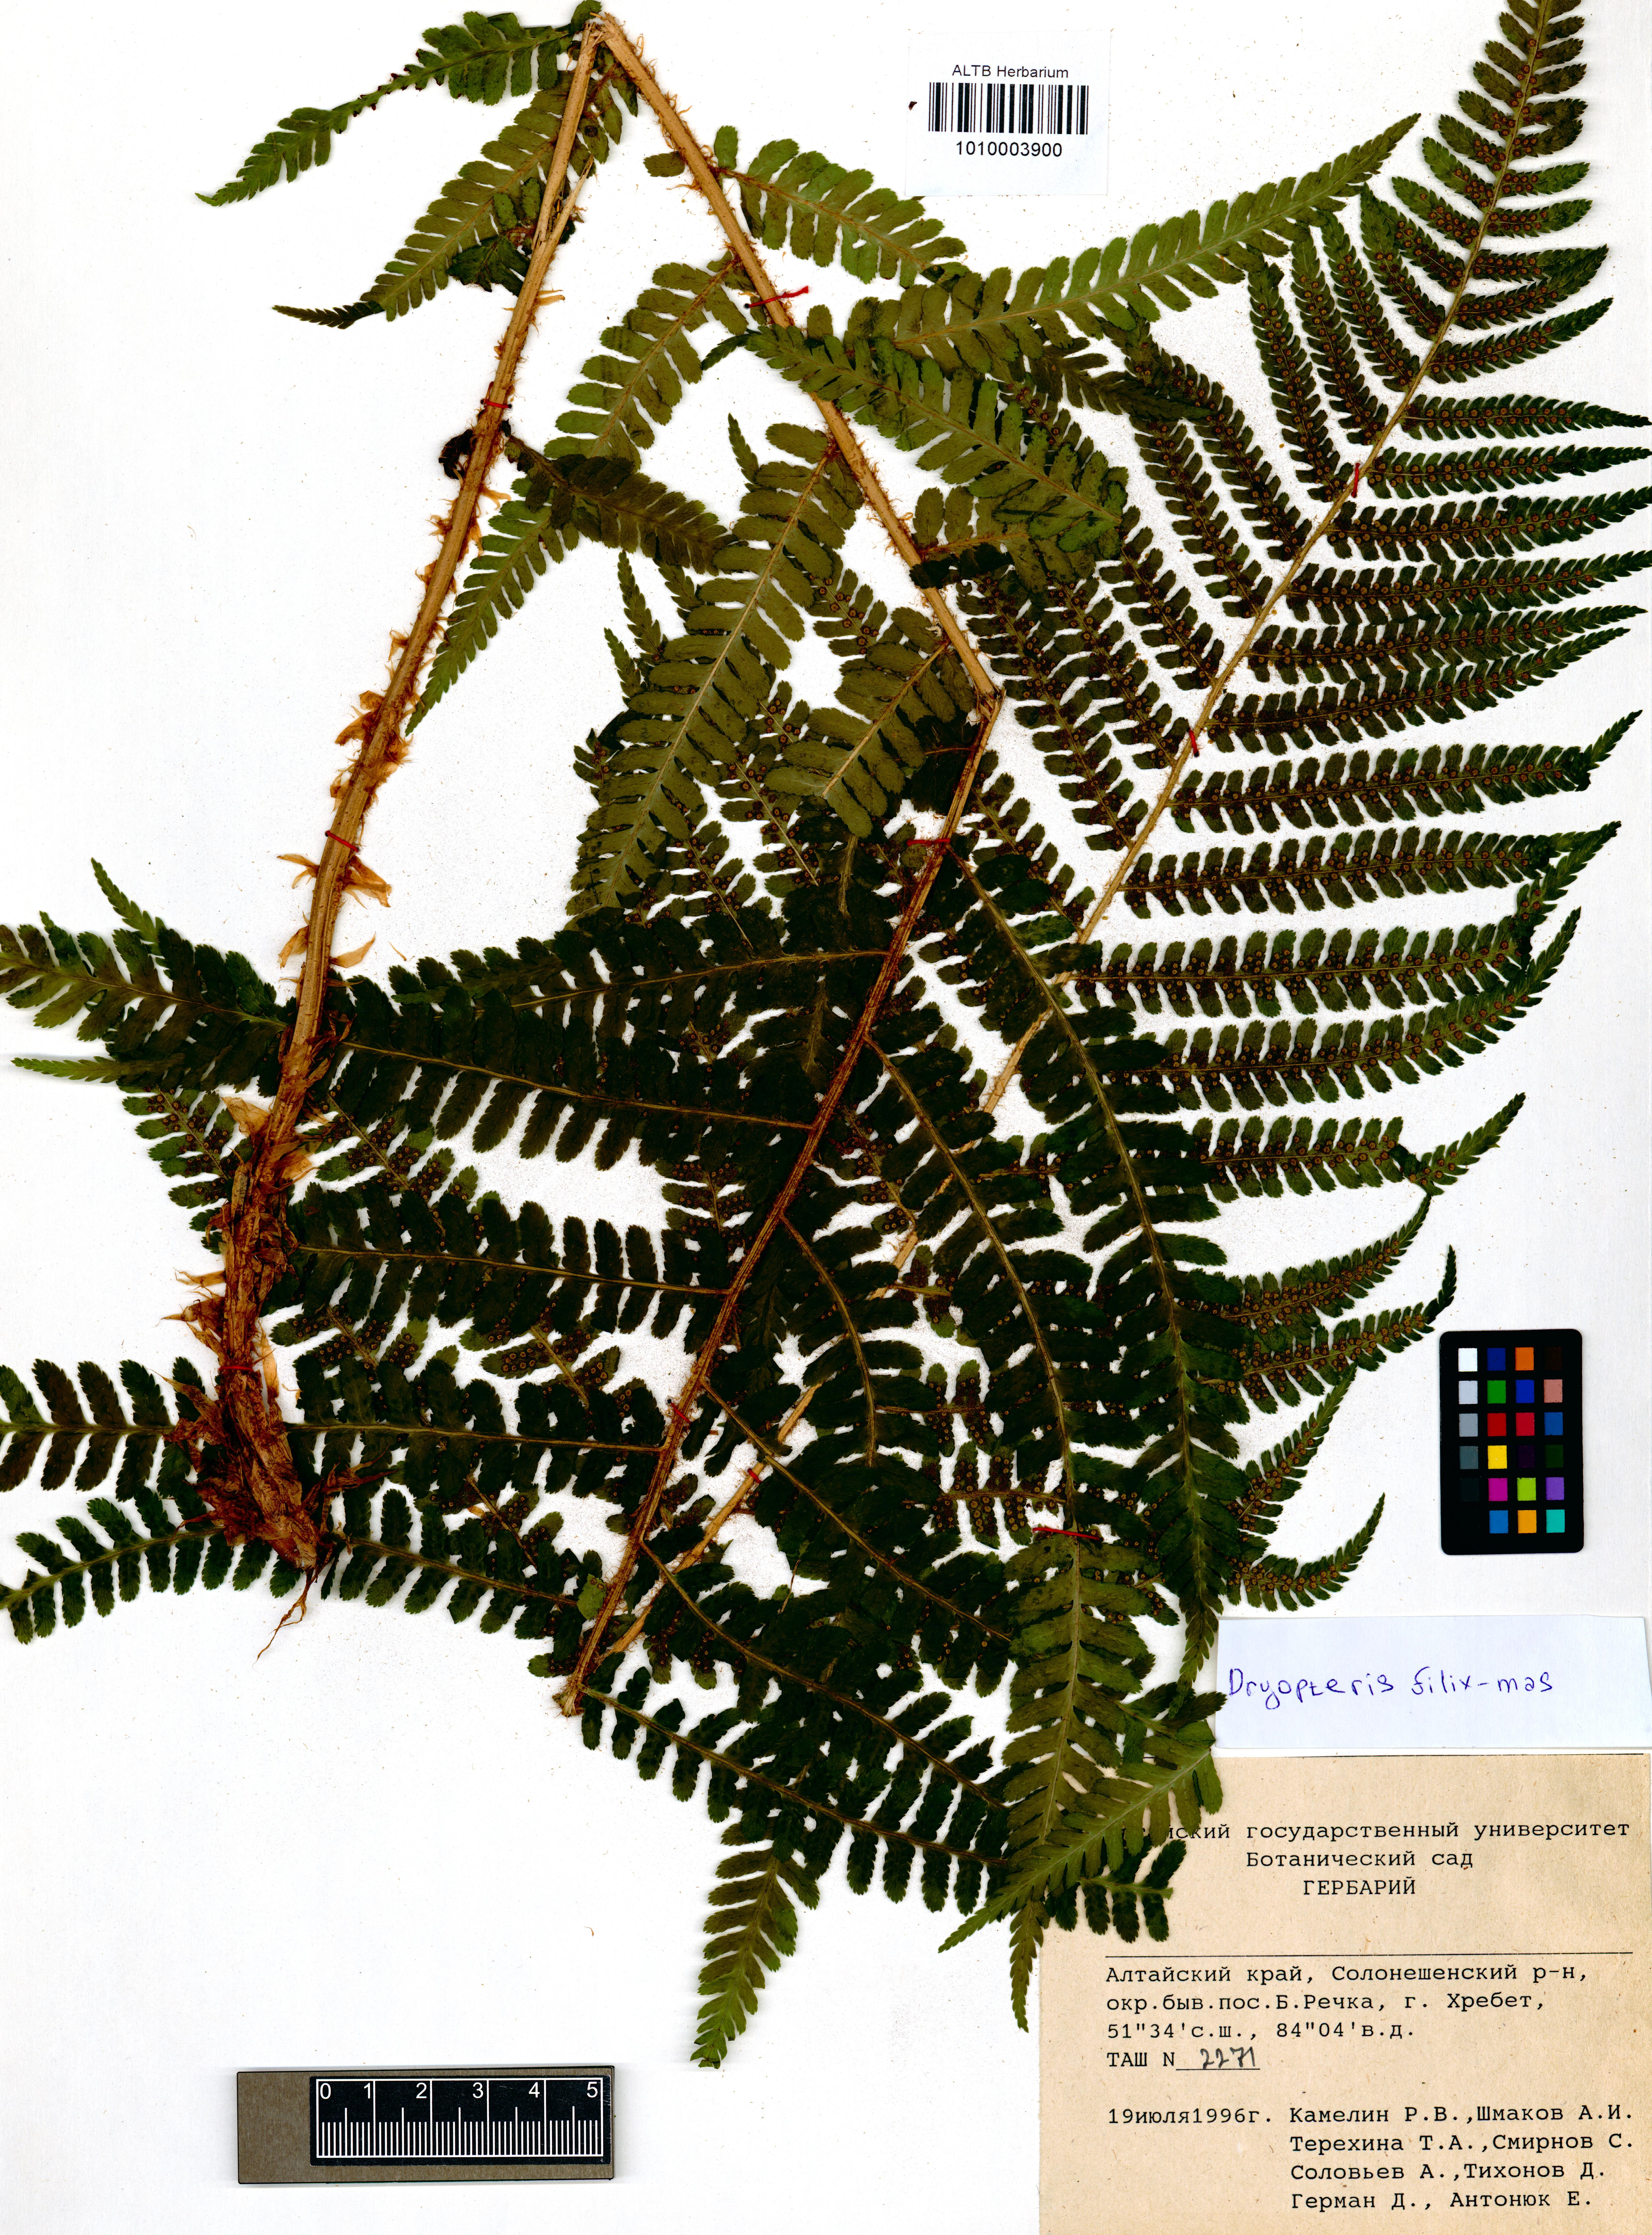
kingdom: Plantae
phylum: Tracheophyta
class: Polypodiopsida
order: Polypodiales
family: Dryopteridaceae
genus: Dryopteris
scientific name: Dryopteris filix-mas
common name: Male fern
